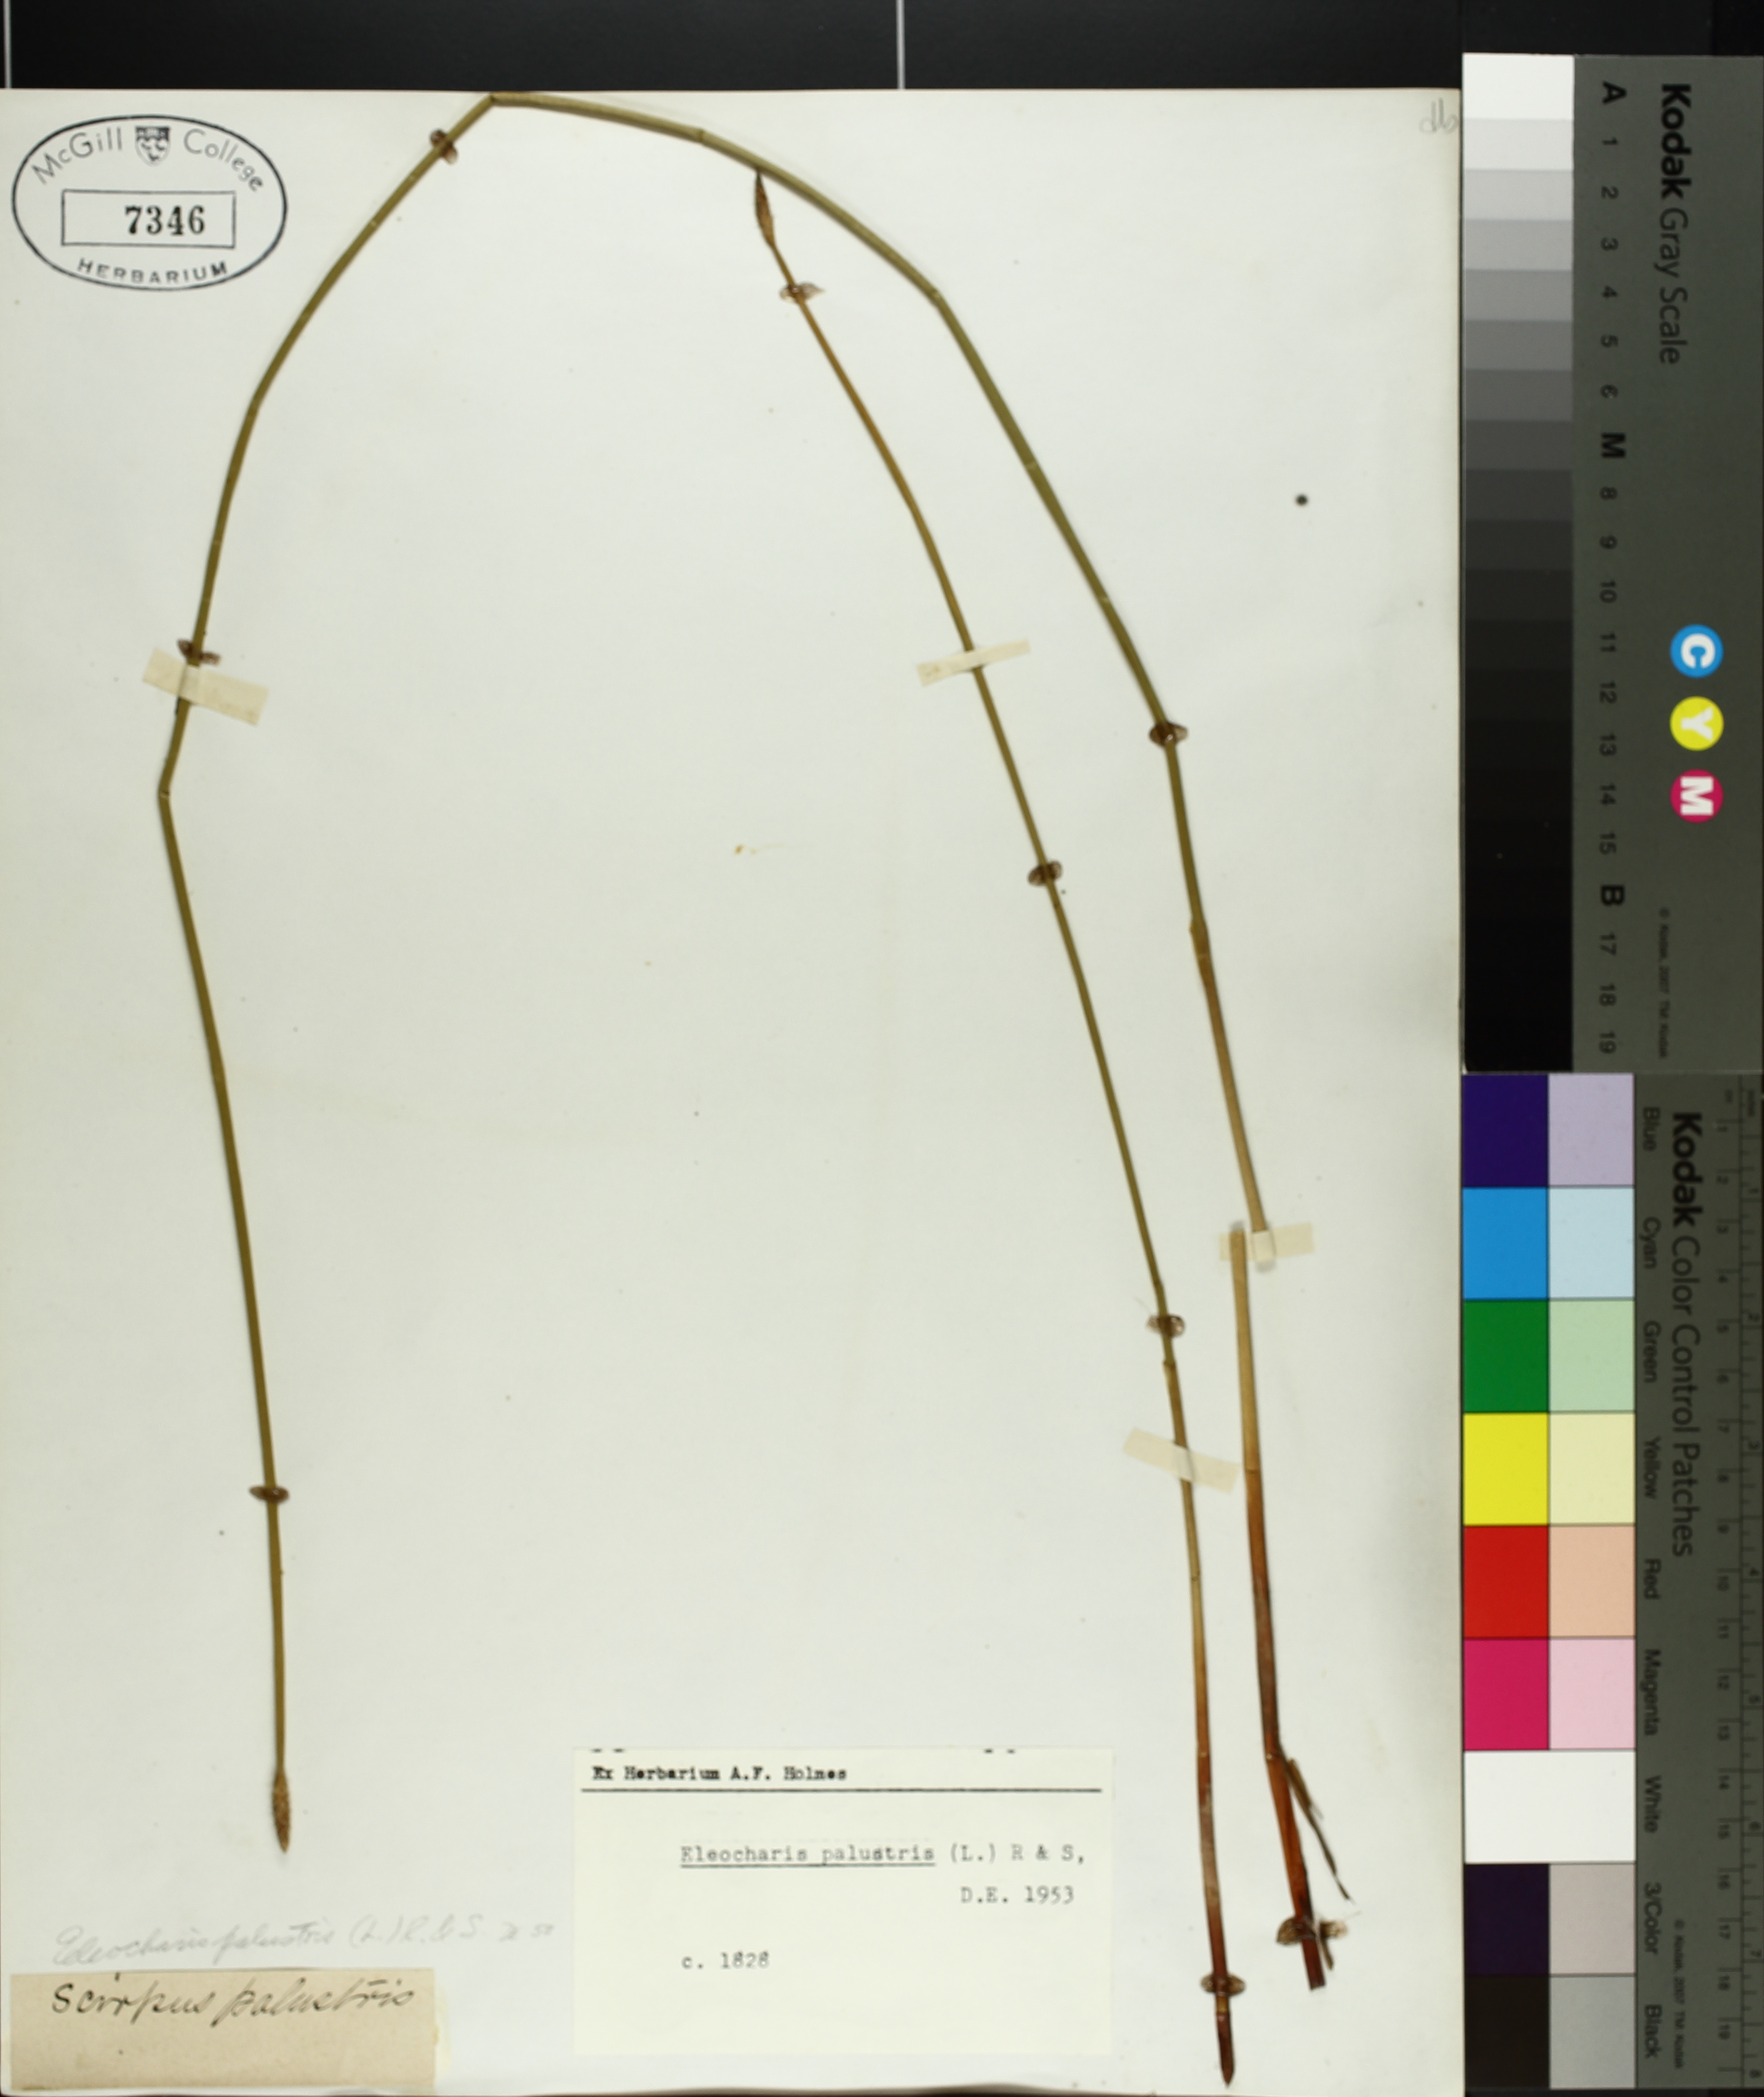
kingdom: Plantae
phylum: Tracheophyta
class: Liliopsida
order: Poales
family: Cyperaceae
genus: Eleocharis
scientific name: Eleocharis palustris
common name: Common spike-rush
